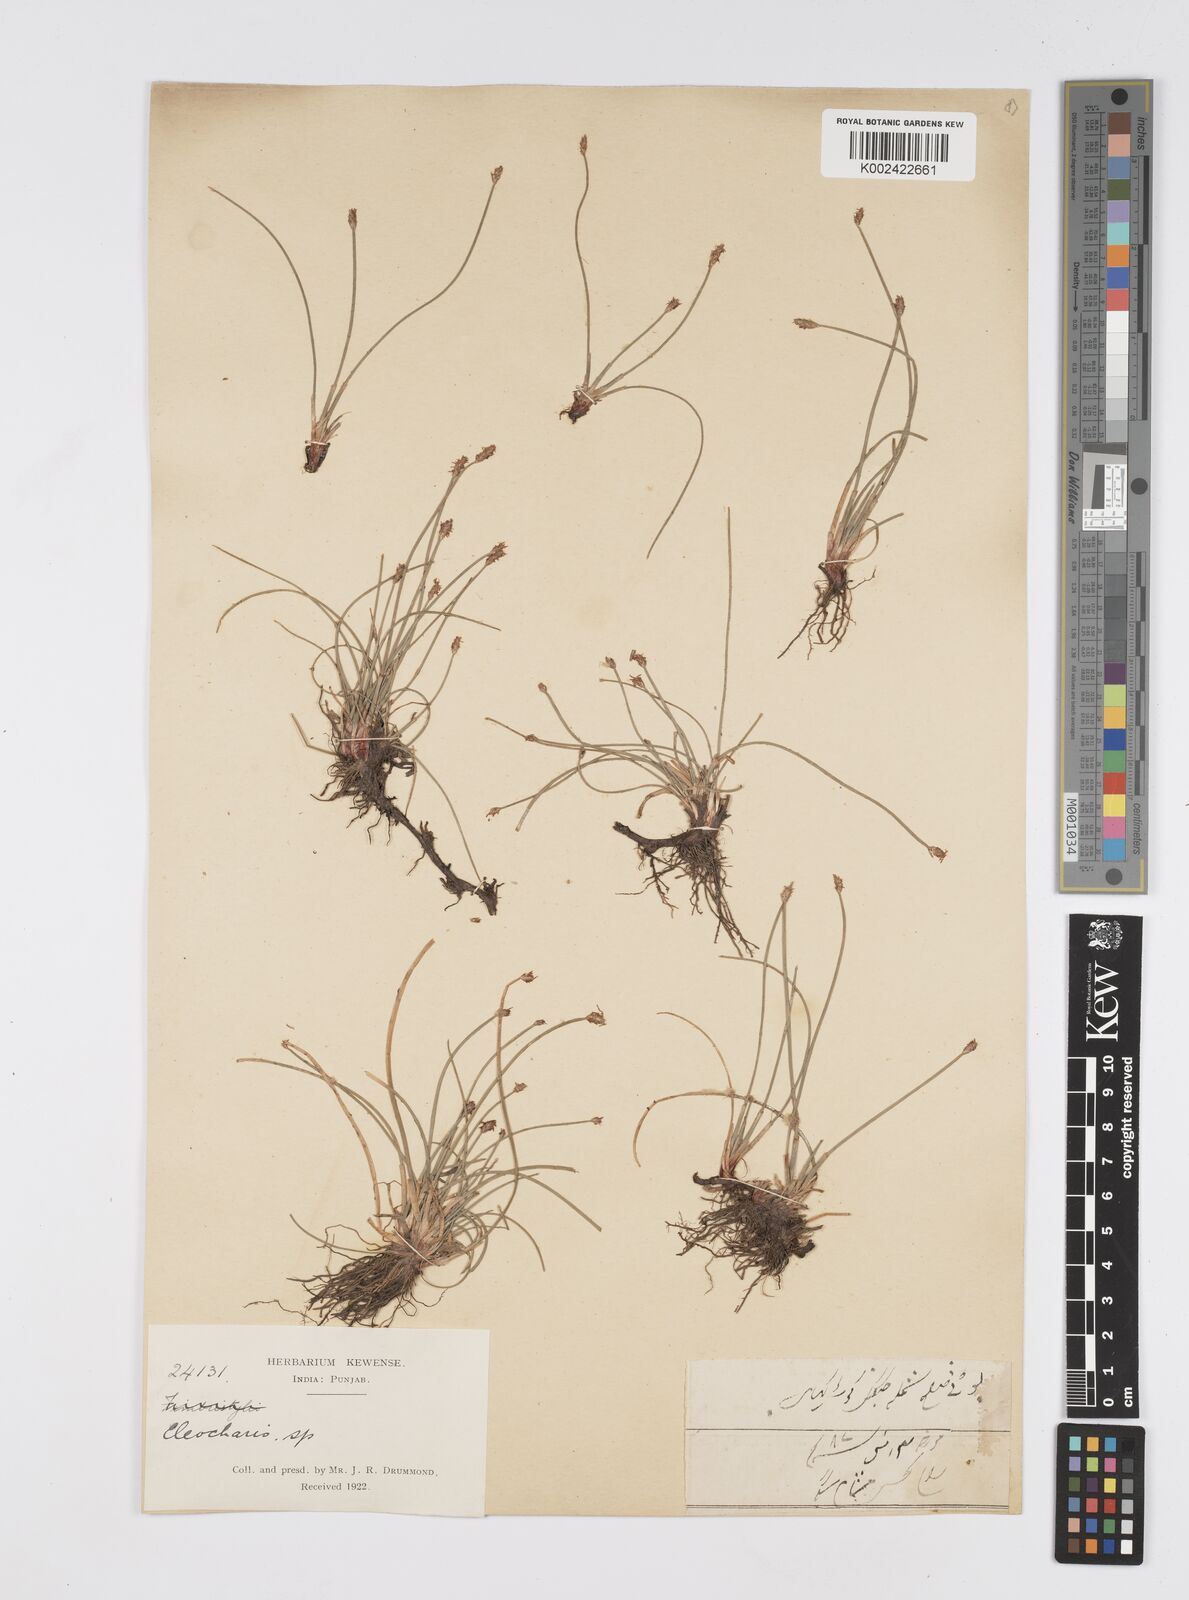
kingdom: Plantae
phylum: Tracheophyta
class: Liliopsida
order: Poales
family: Cyperaceae
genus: Eleocharis
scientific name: Eleocharis congesta
